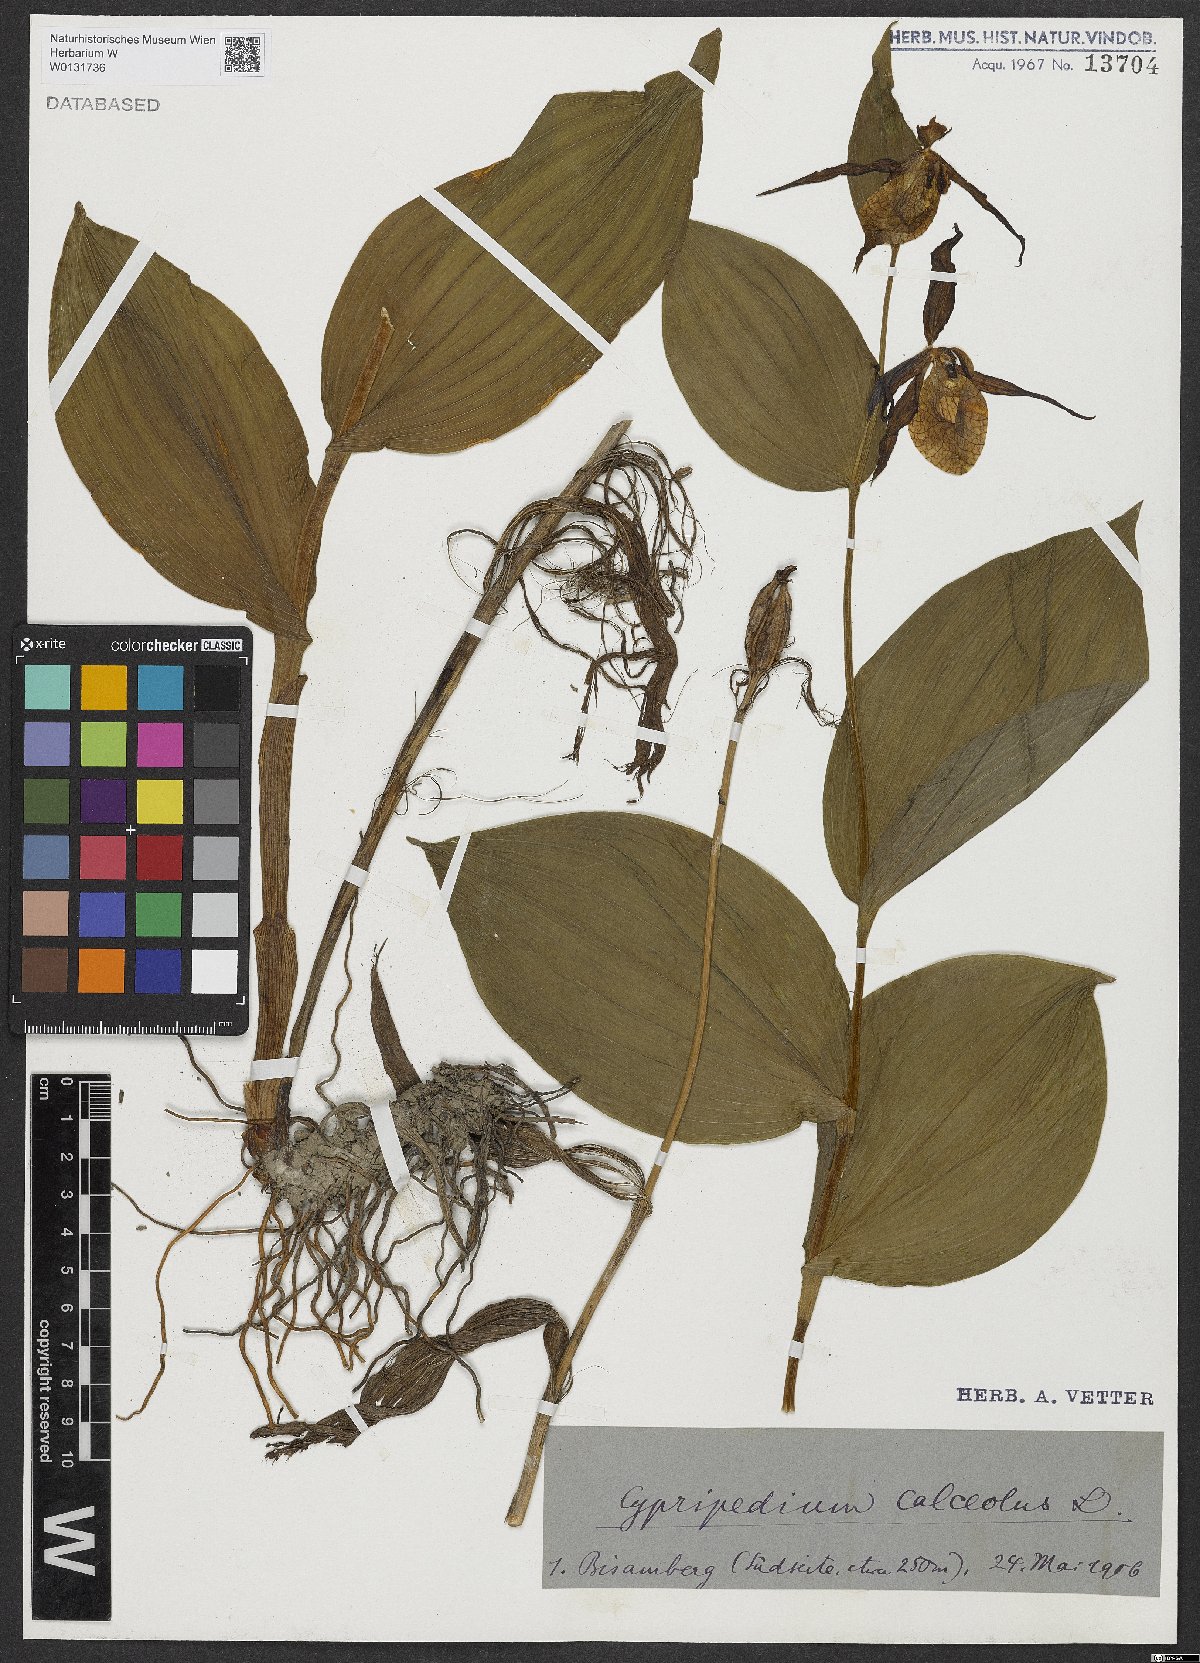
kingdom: Plantae
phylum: Tracheophyta
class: Liliopsida
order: Asparagales
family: Orchidaceae
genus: Cypripedium
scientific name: Cypripedium calceolus
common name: Lady's-slipper
